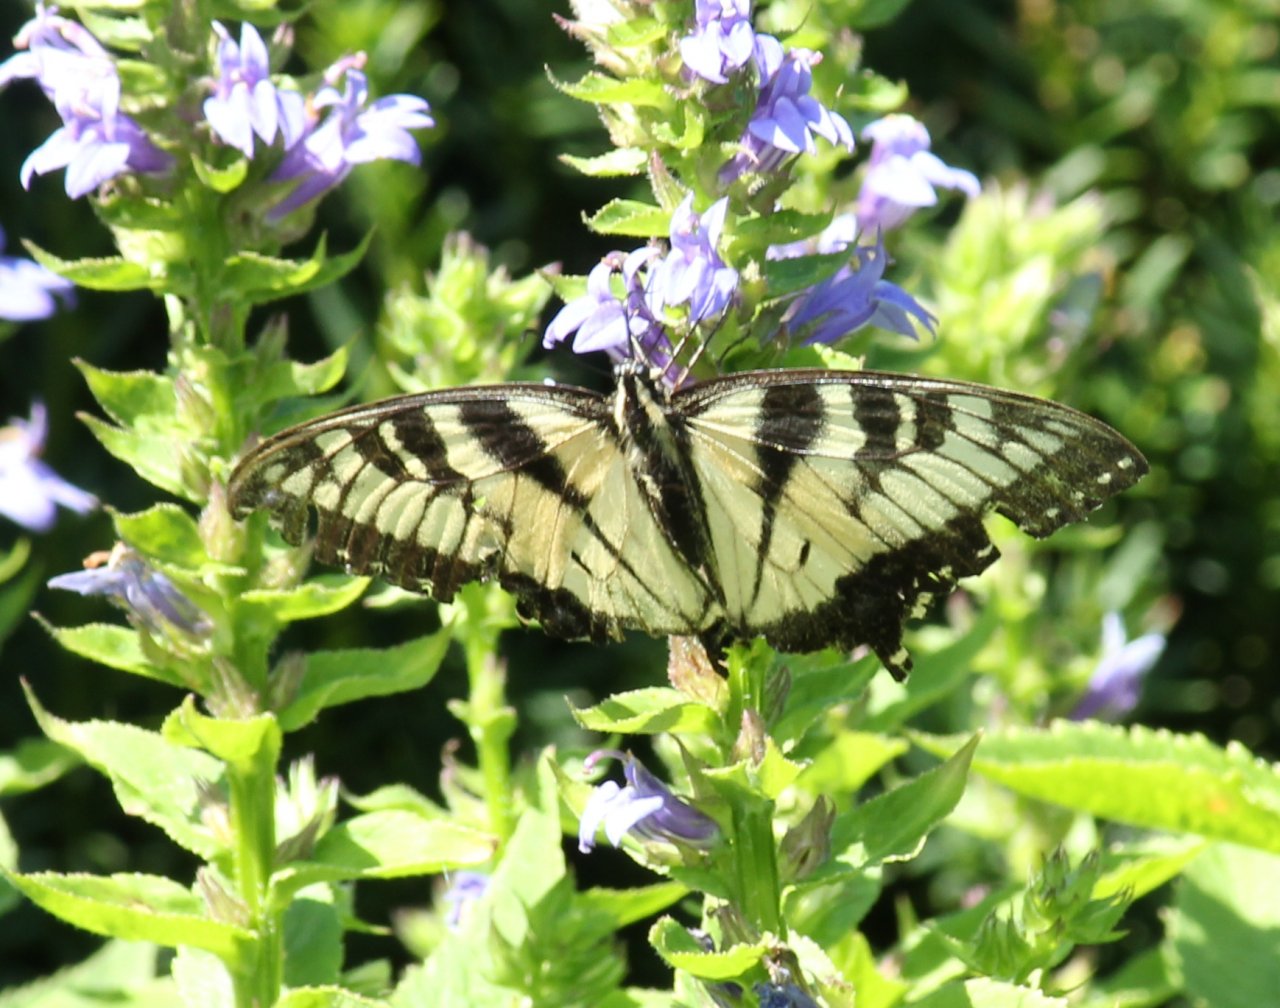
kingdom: Animalia
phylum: Arthropoda
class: Insecta
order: Lepidoptera
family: Papilionidae
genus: Pterourus
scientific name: Pterourus glaucus
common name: Eastern Tiger Swallowtail
